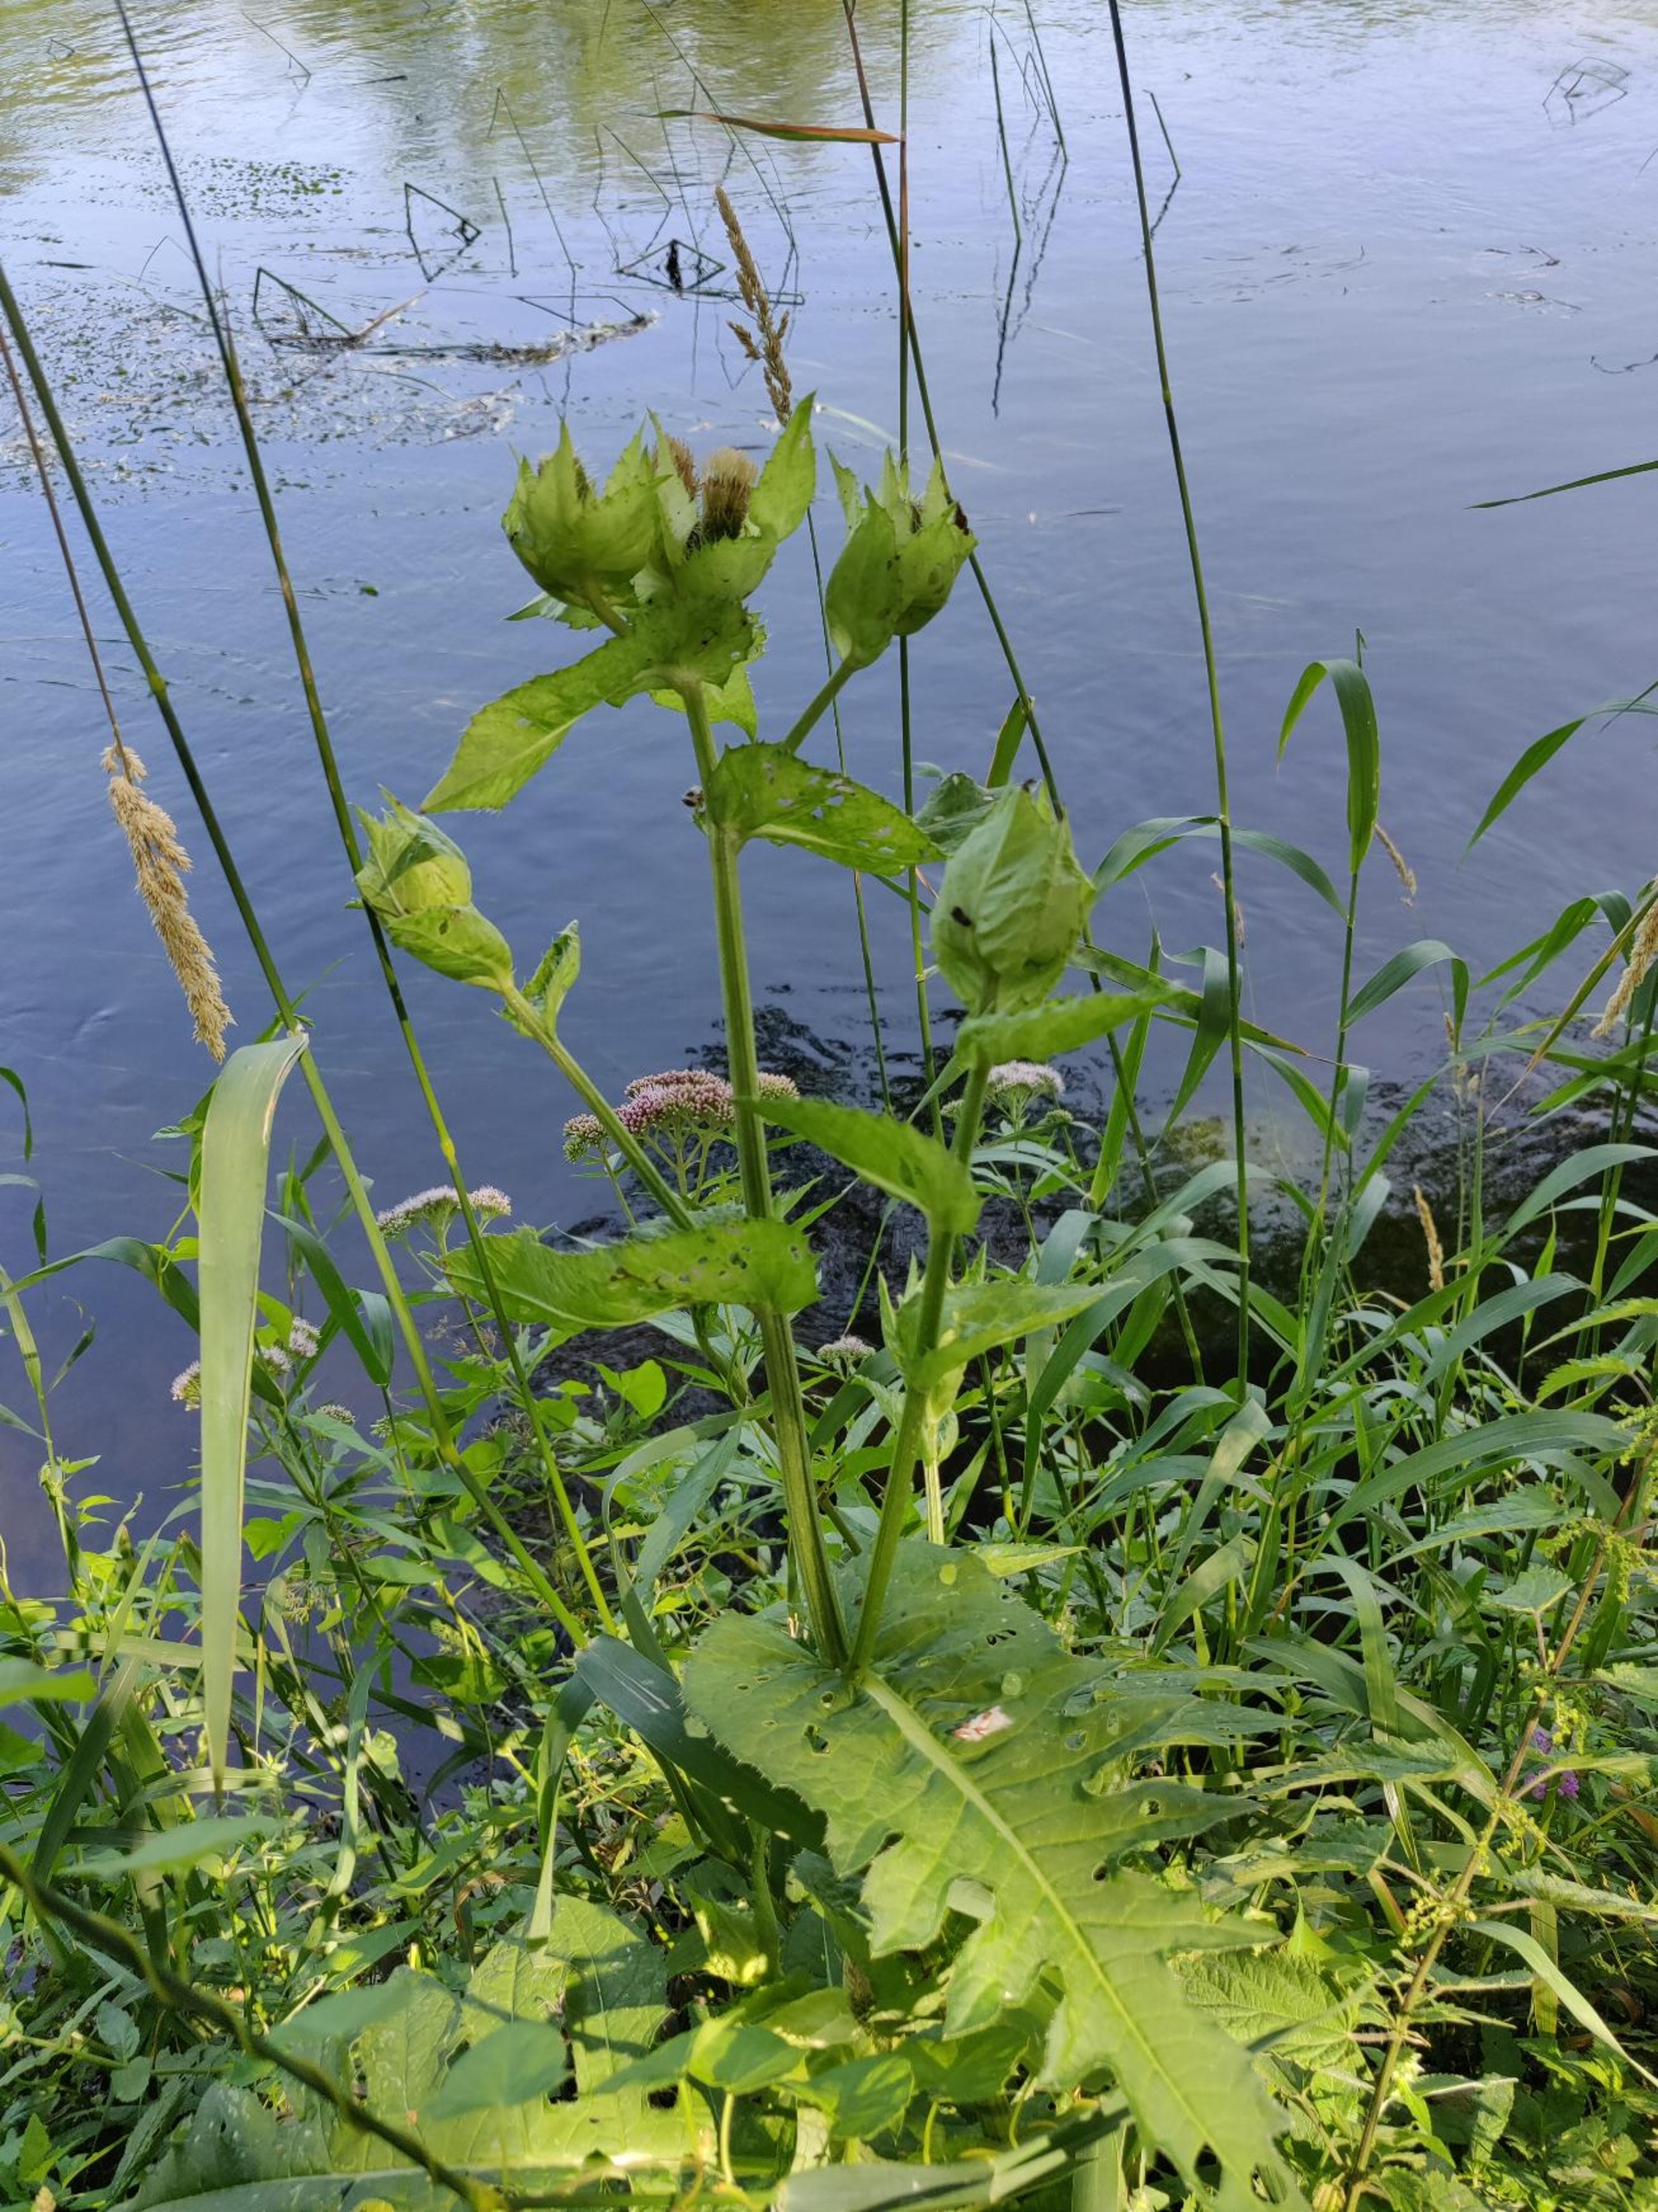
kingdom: Plantae
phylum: Tracheophyta
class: Magnoliopsida
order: Asterales
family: Asteraceae
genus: Cirsium
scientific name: Cirsium oleraceum
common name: Kål-tidsel
